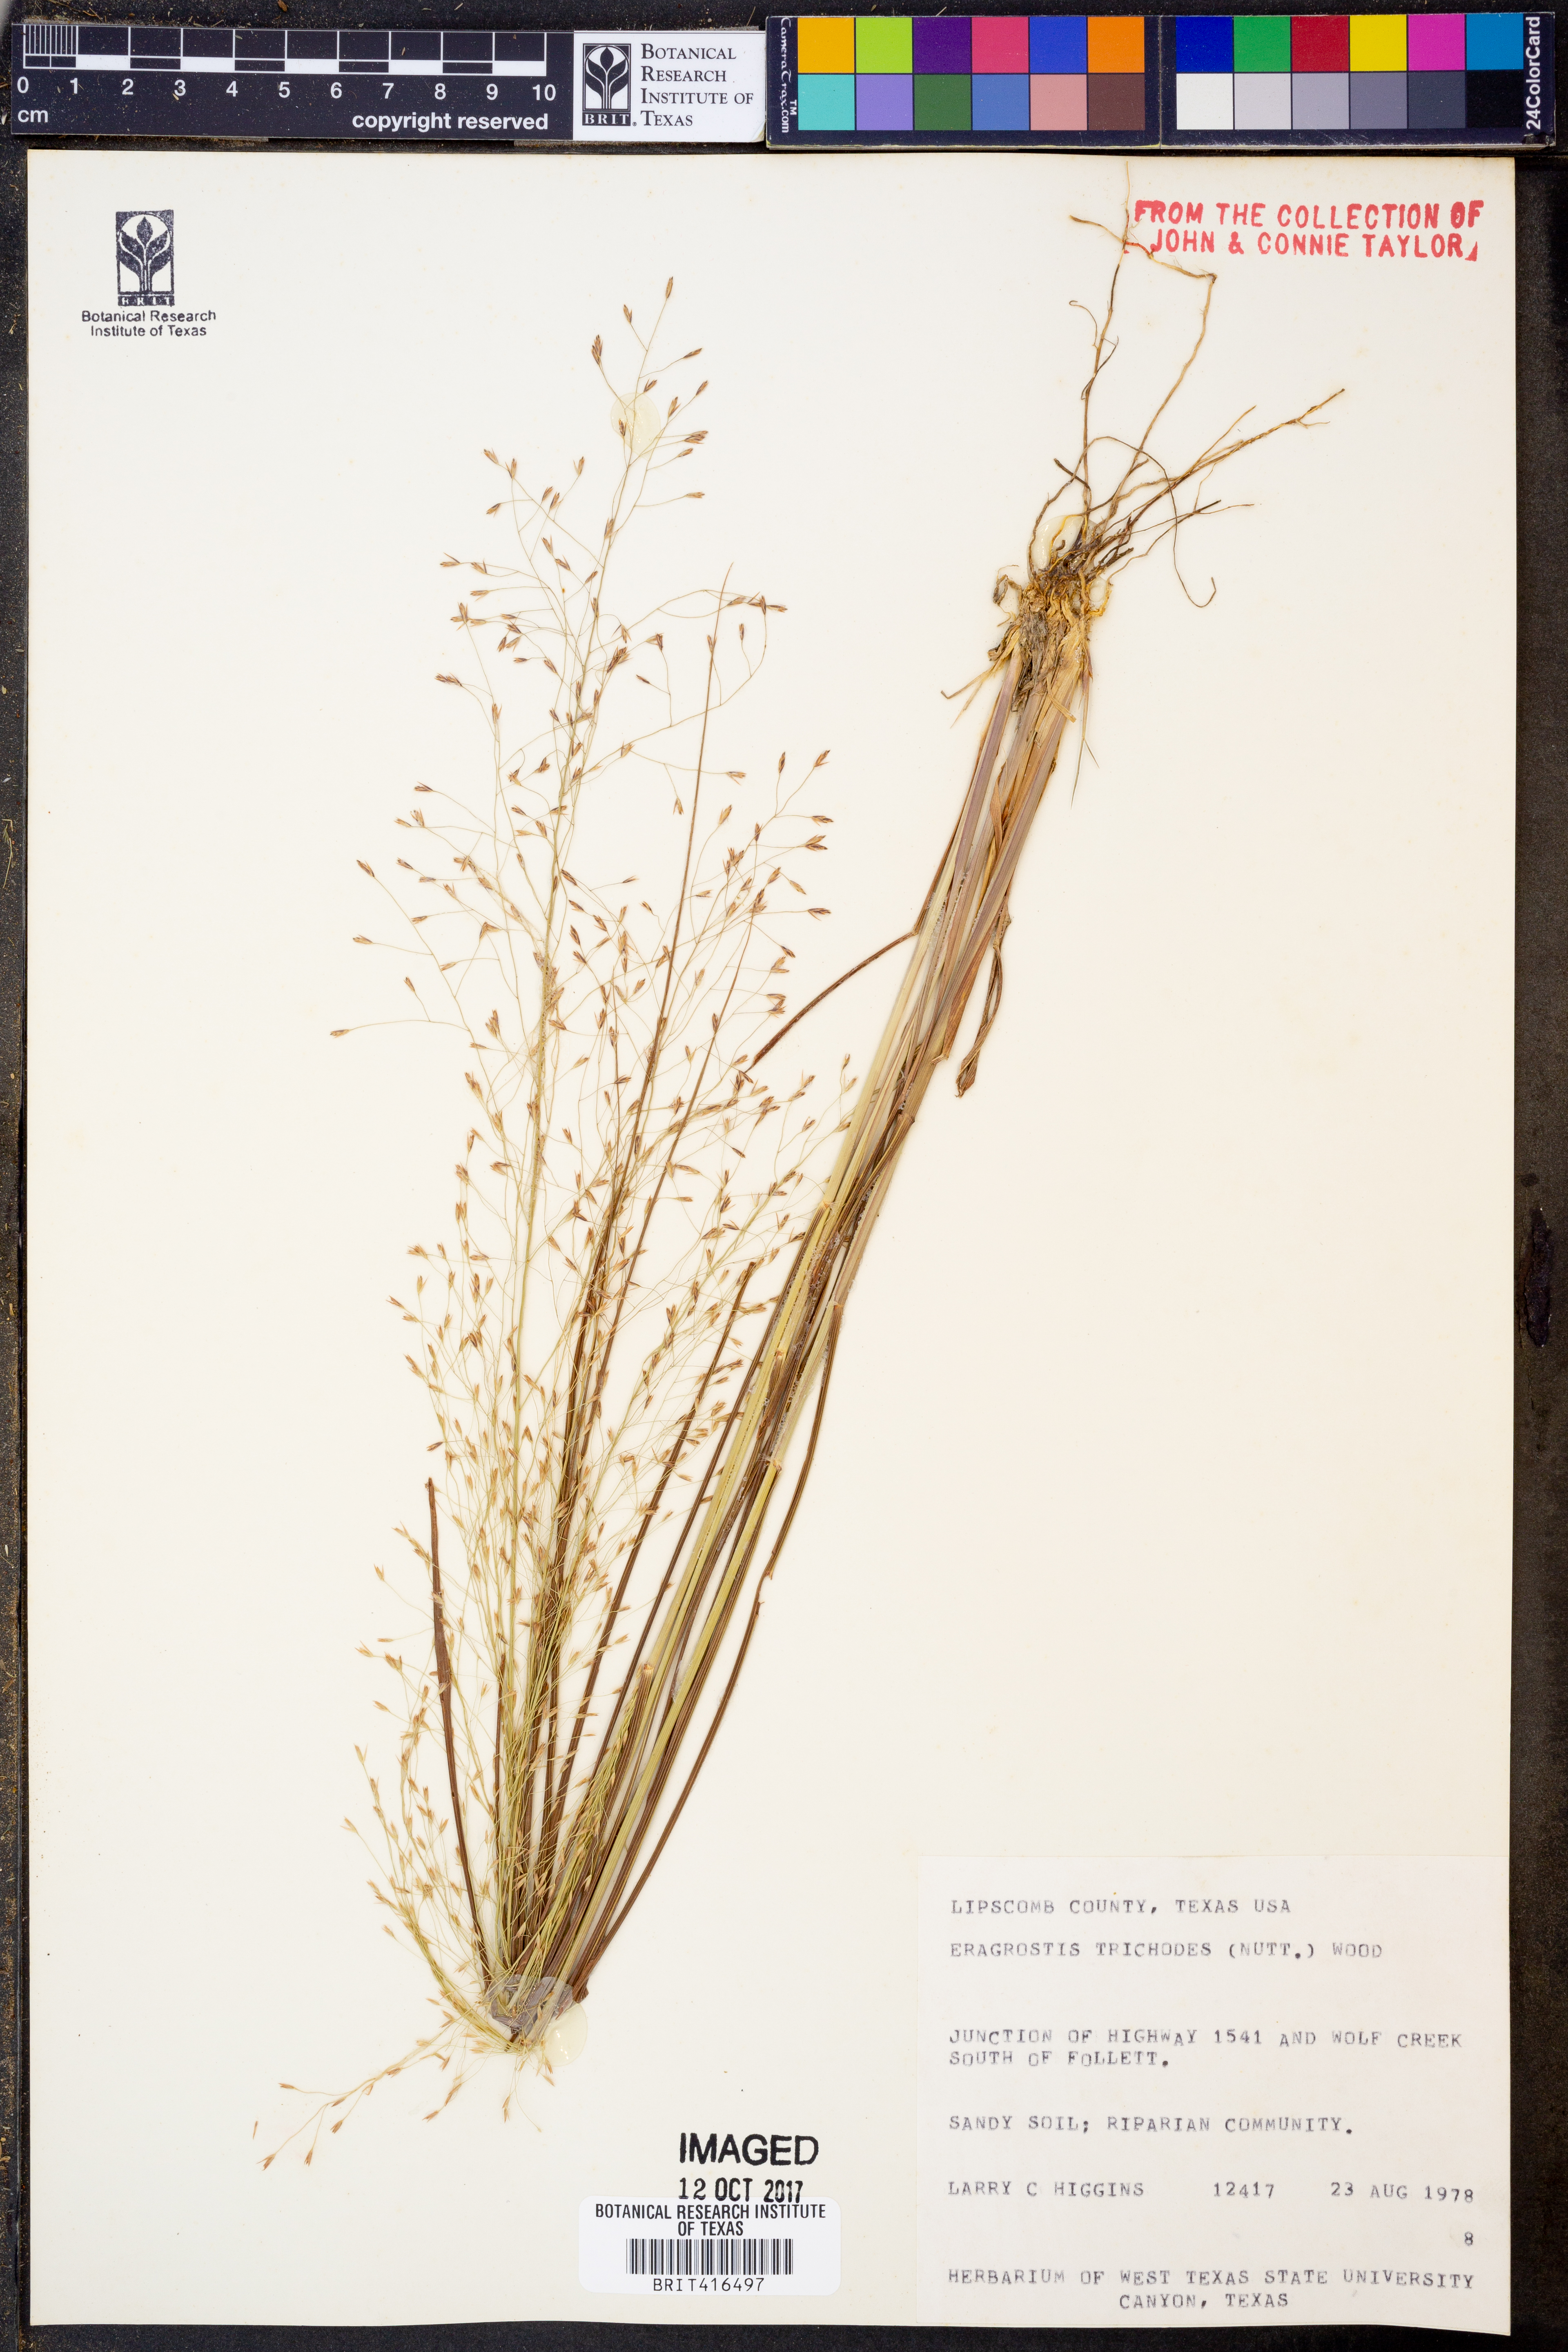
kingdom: Plantae
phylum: Tracheophyta
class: Liliopsida
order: Poales
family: Poaceae
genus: Eragrostis
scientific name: Eragrostis trichodes
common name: Sand love grass
